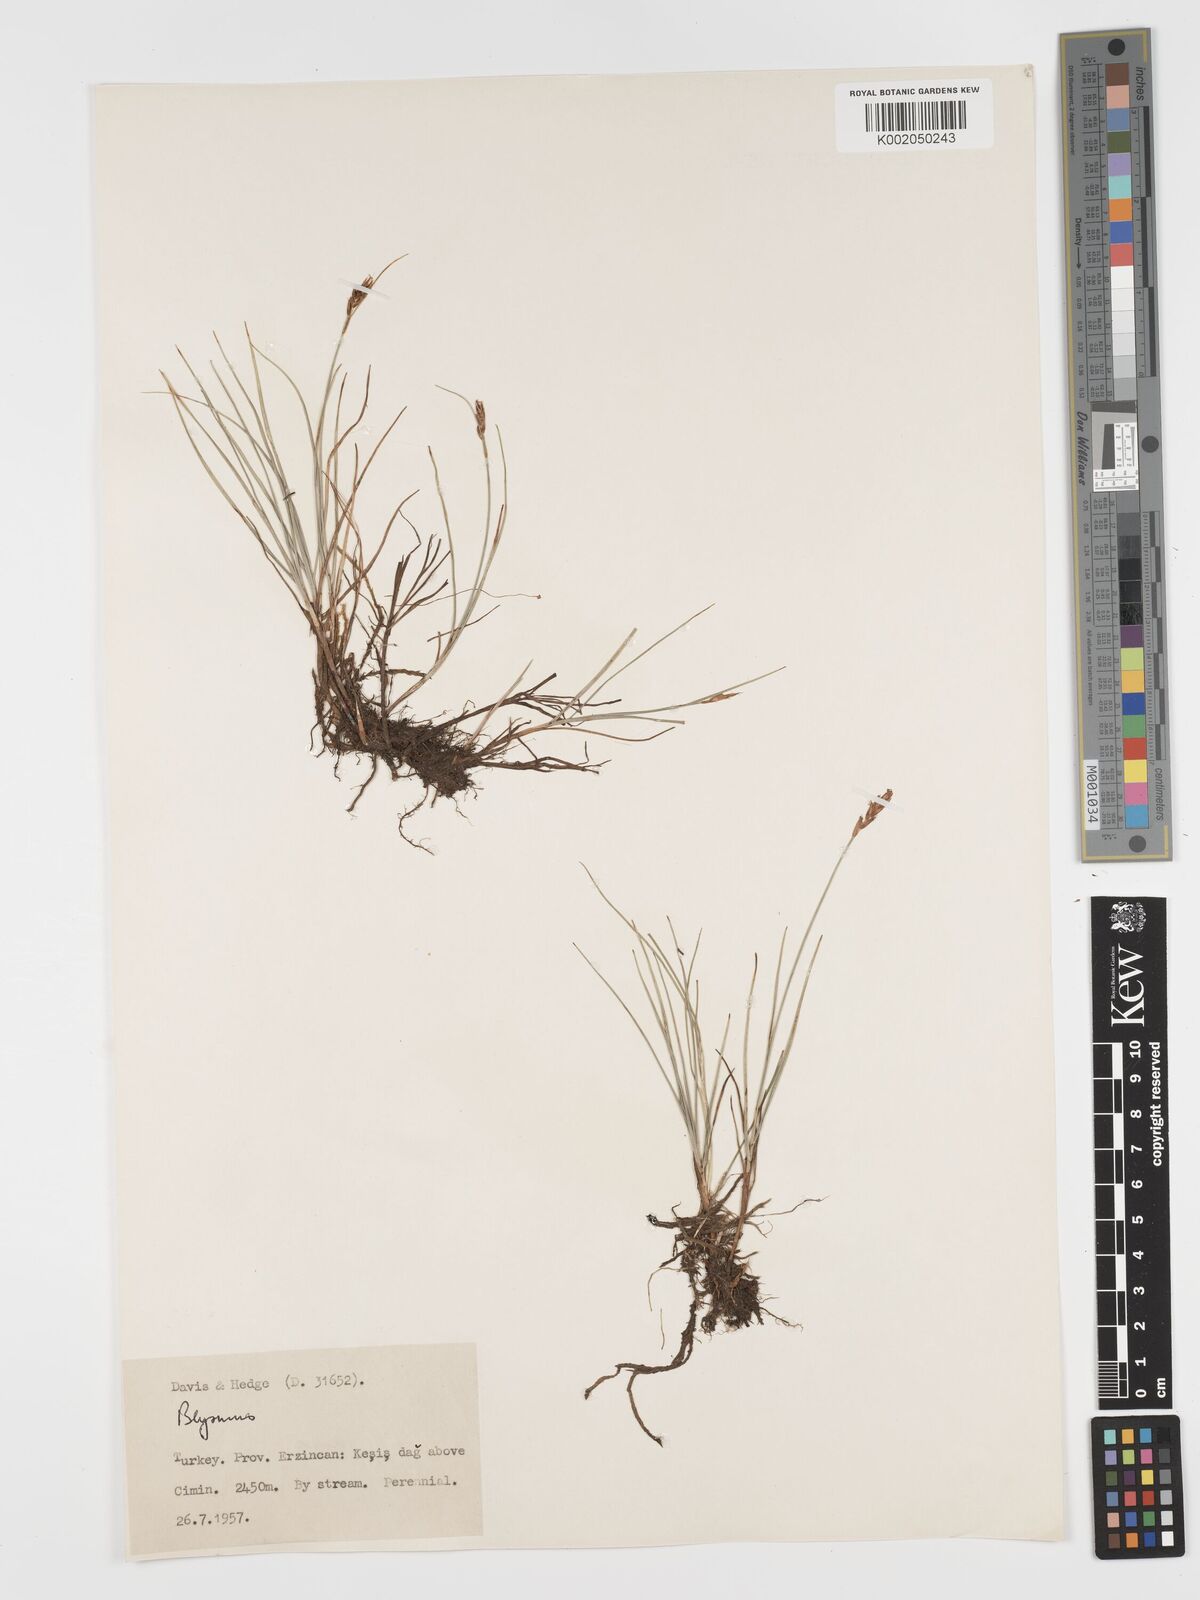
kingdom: Plantae
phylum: Tracheophyta
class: Liliopsida
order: Poales
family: Cyperaceae
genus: Blysmus
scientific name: Blysmus compressus
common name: Flat-sedge
